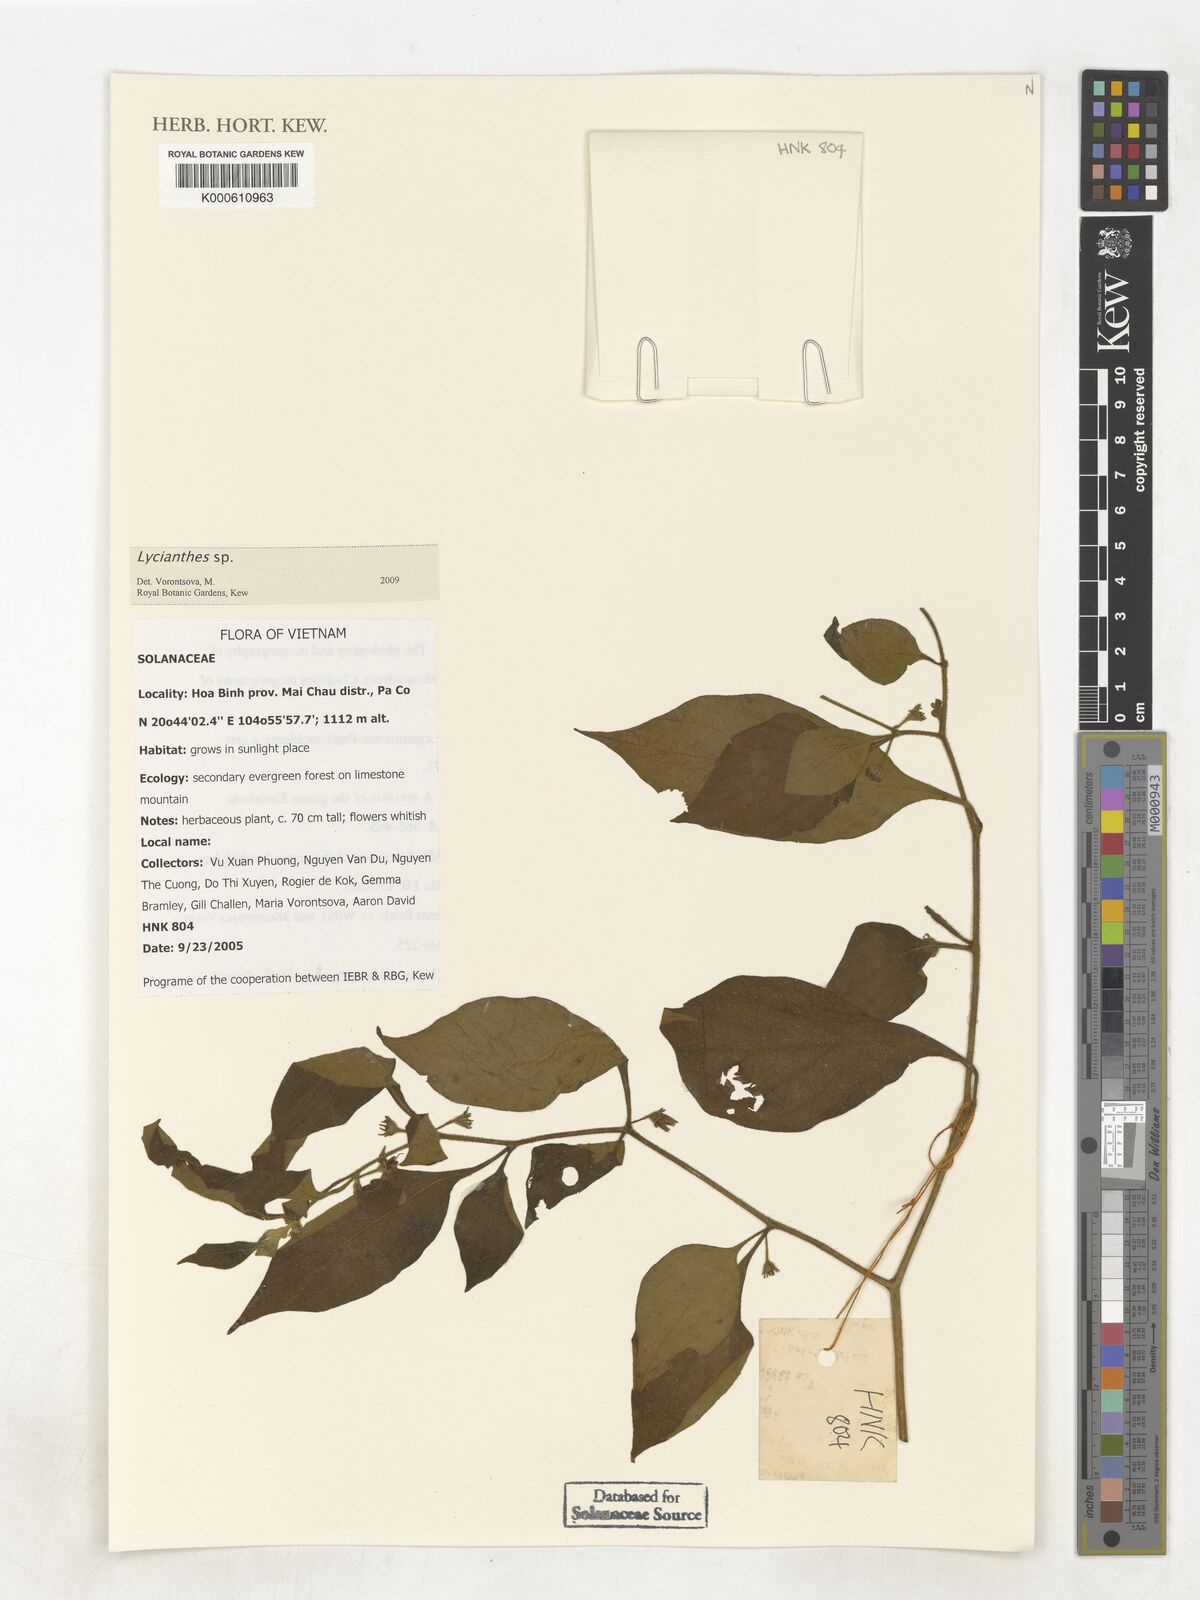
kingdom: Plantae
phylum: Tracheophyta
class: Magnoliopsida
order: Solanales
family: Solanaceae
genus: Lycianthes
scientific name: Lycianthes
